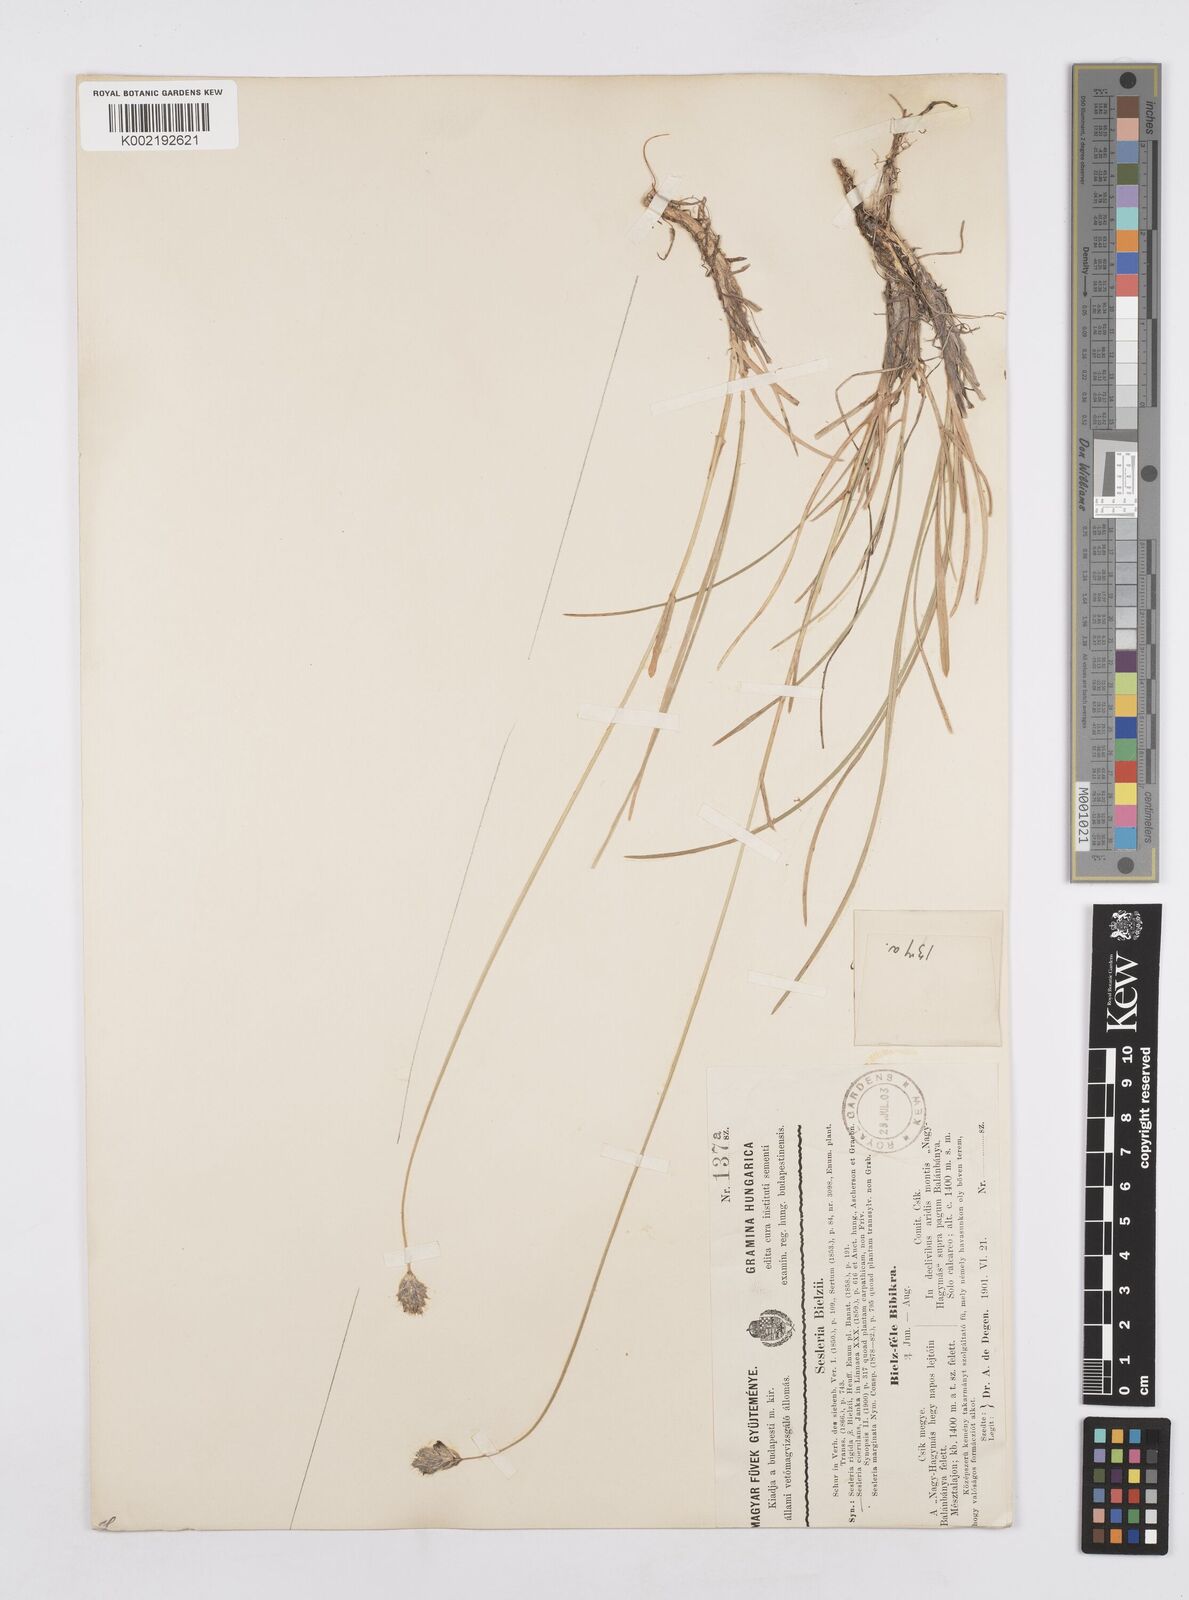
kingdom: Plantae
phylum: Tracheophyta
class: Liliopsida
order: Poales
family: Poaceae
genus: Sesleria
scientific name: Sesleria bielzii
